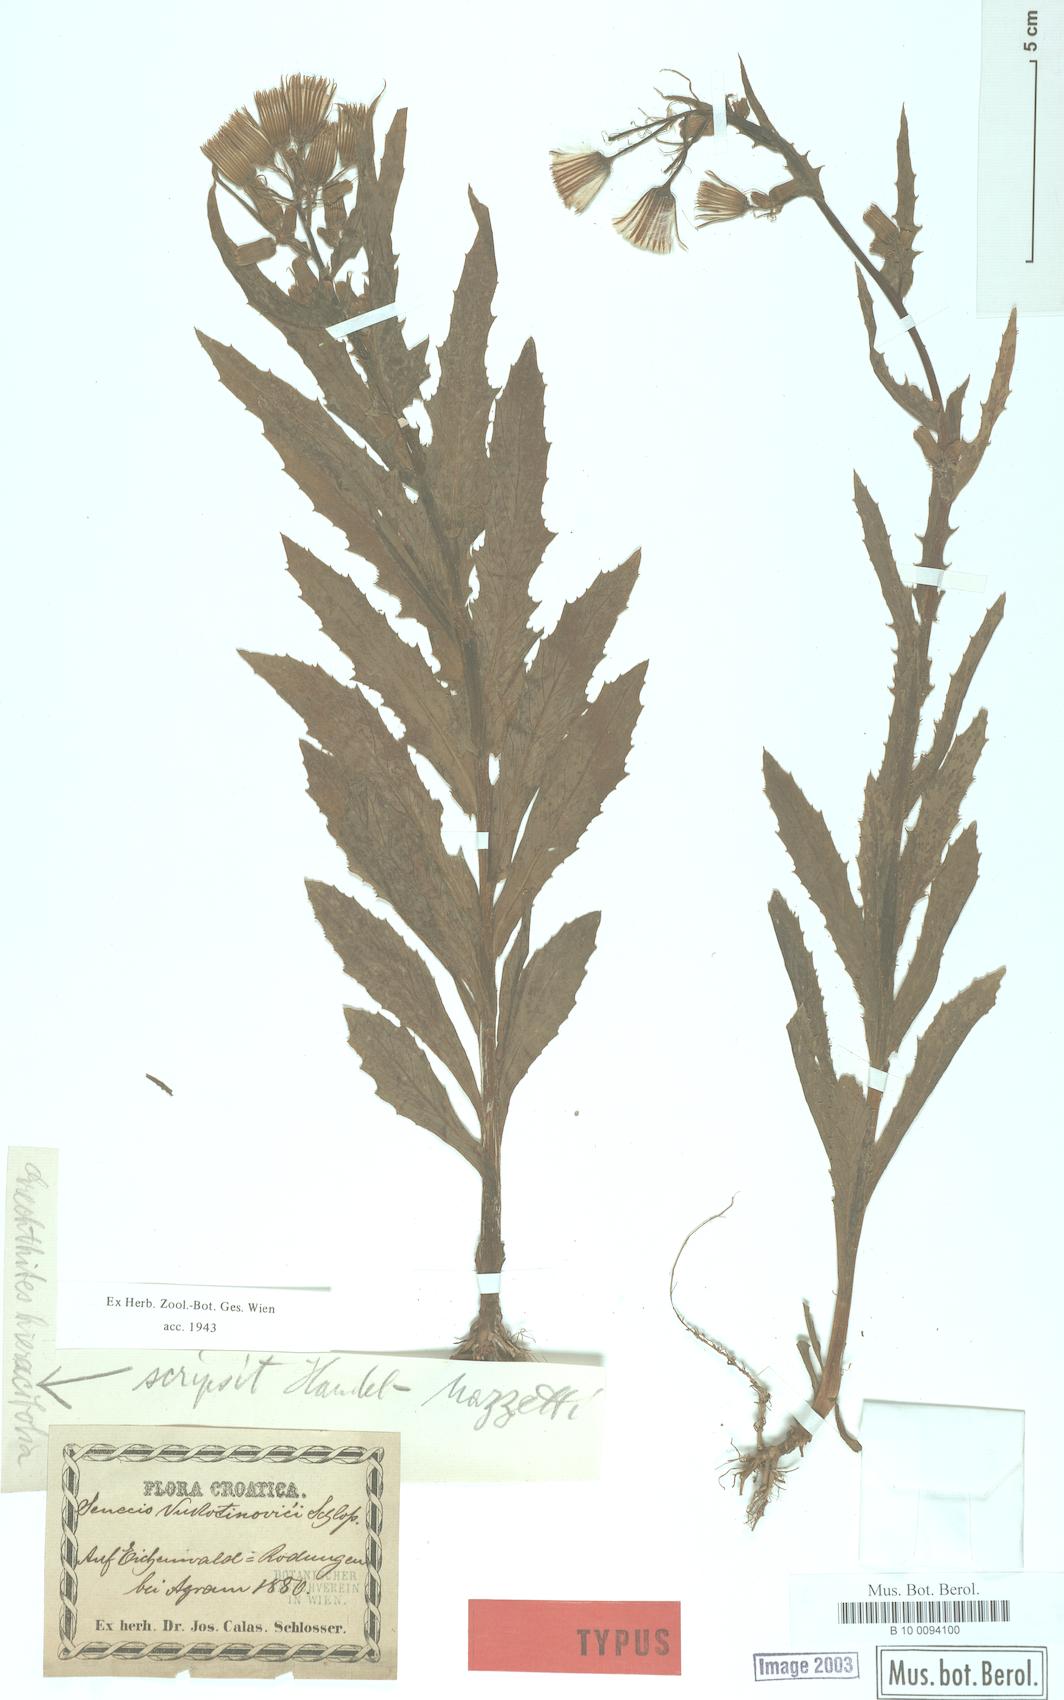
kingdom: Plantae
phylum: Tracheophyta
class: Magnoliopsida
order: Asterales
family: Asteraceae
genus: Erechtites
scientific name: Erechtites hieraciifolius
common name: American burnweed
